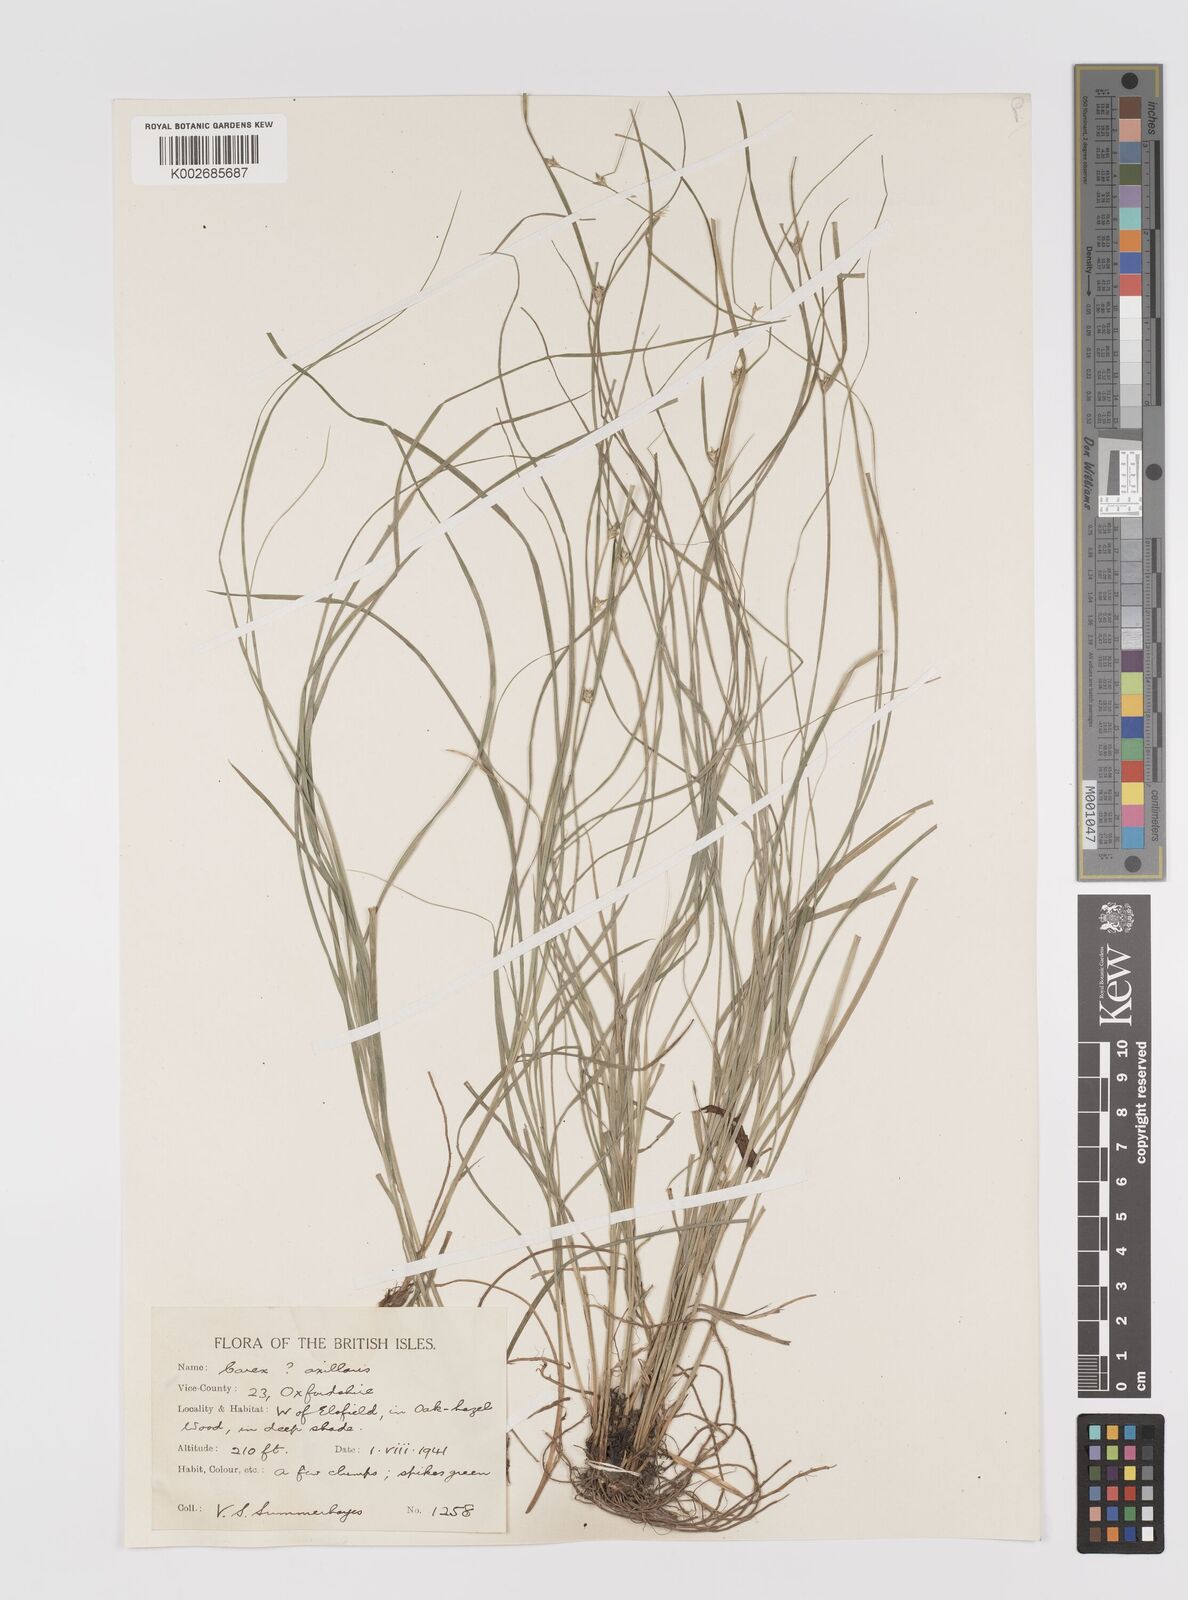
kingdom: Plantae
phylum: Tracheophyta
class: Liliopsida
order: Poales
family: Cyperaceae
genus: Carex
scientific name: Carex remota
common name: Remote sedge
